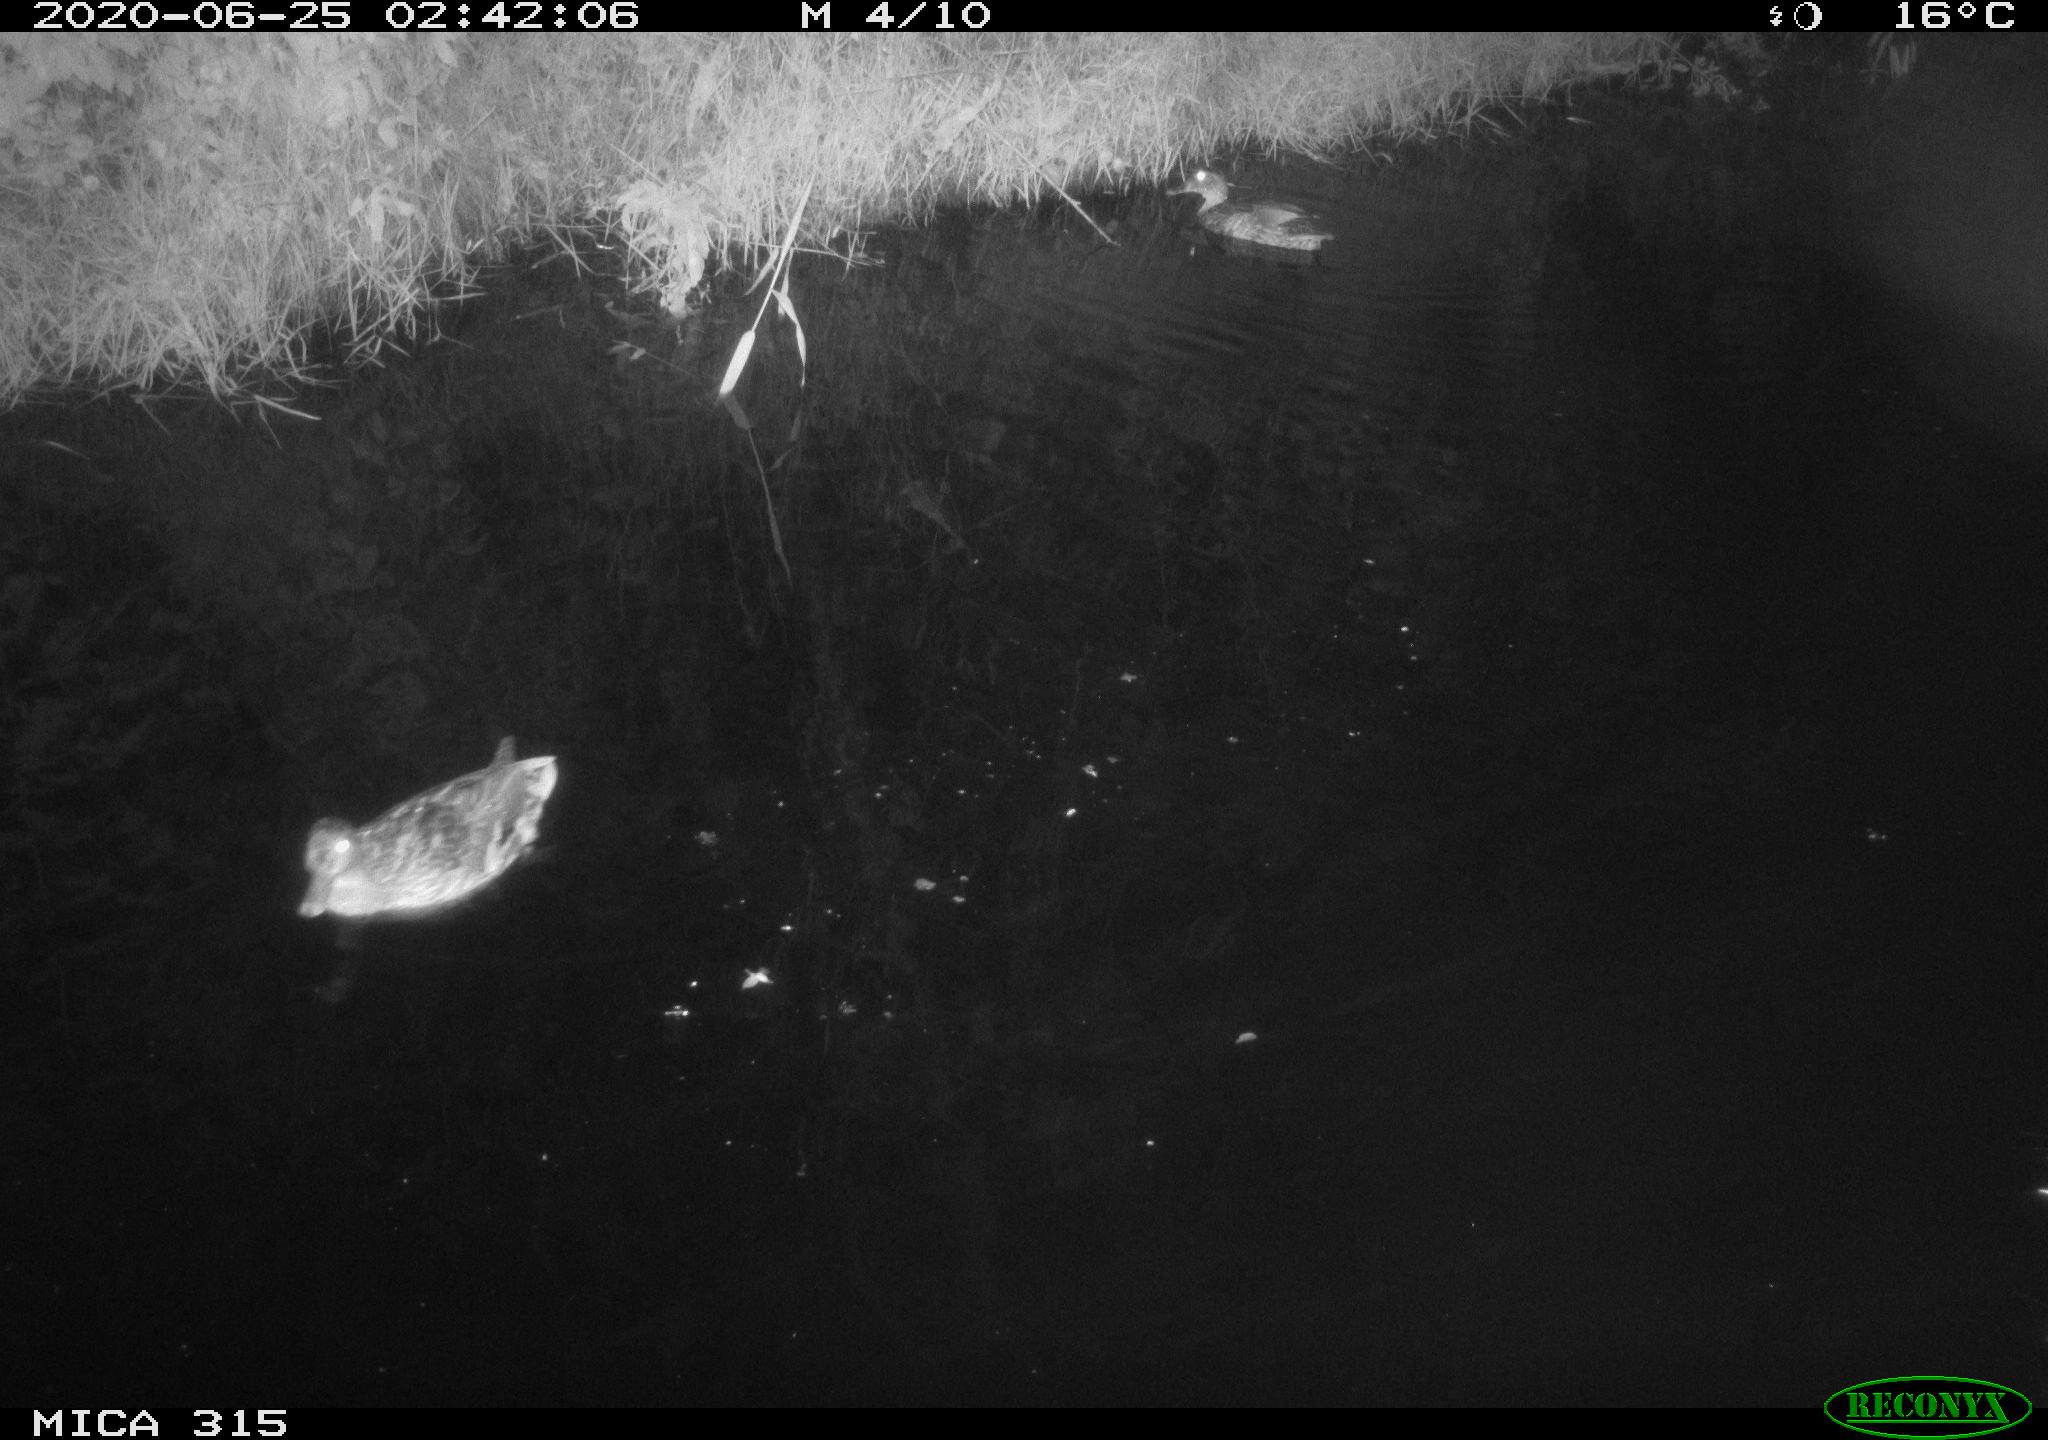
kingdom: Animalia
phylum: Chordata
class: Aves
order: Anseriformes
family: Anatidae
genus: Anas
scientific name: Anas platyrhynchos
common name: Mallard
